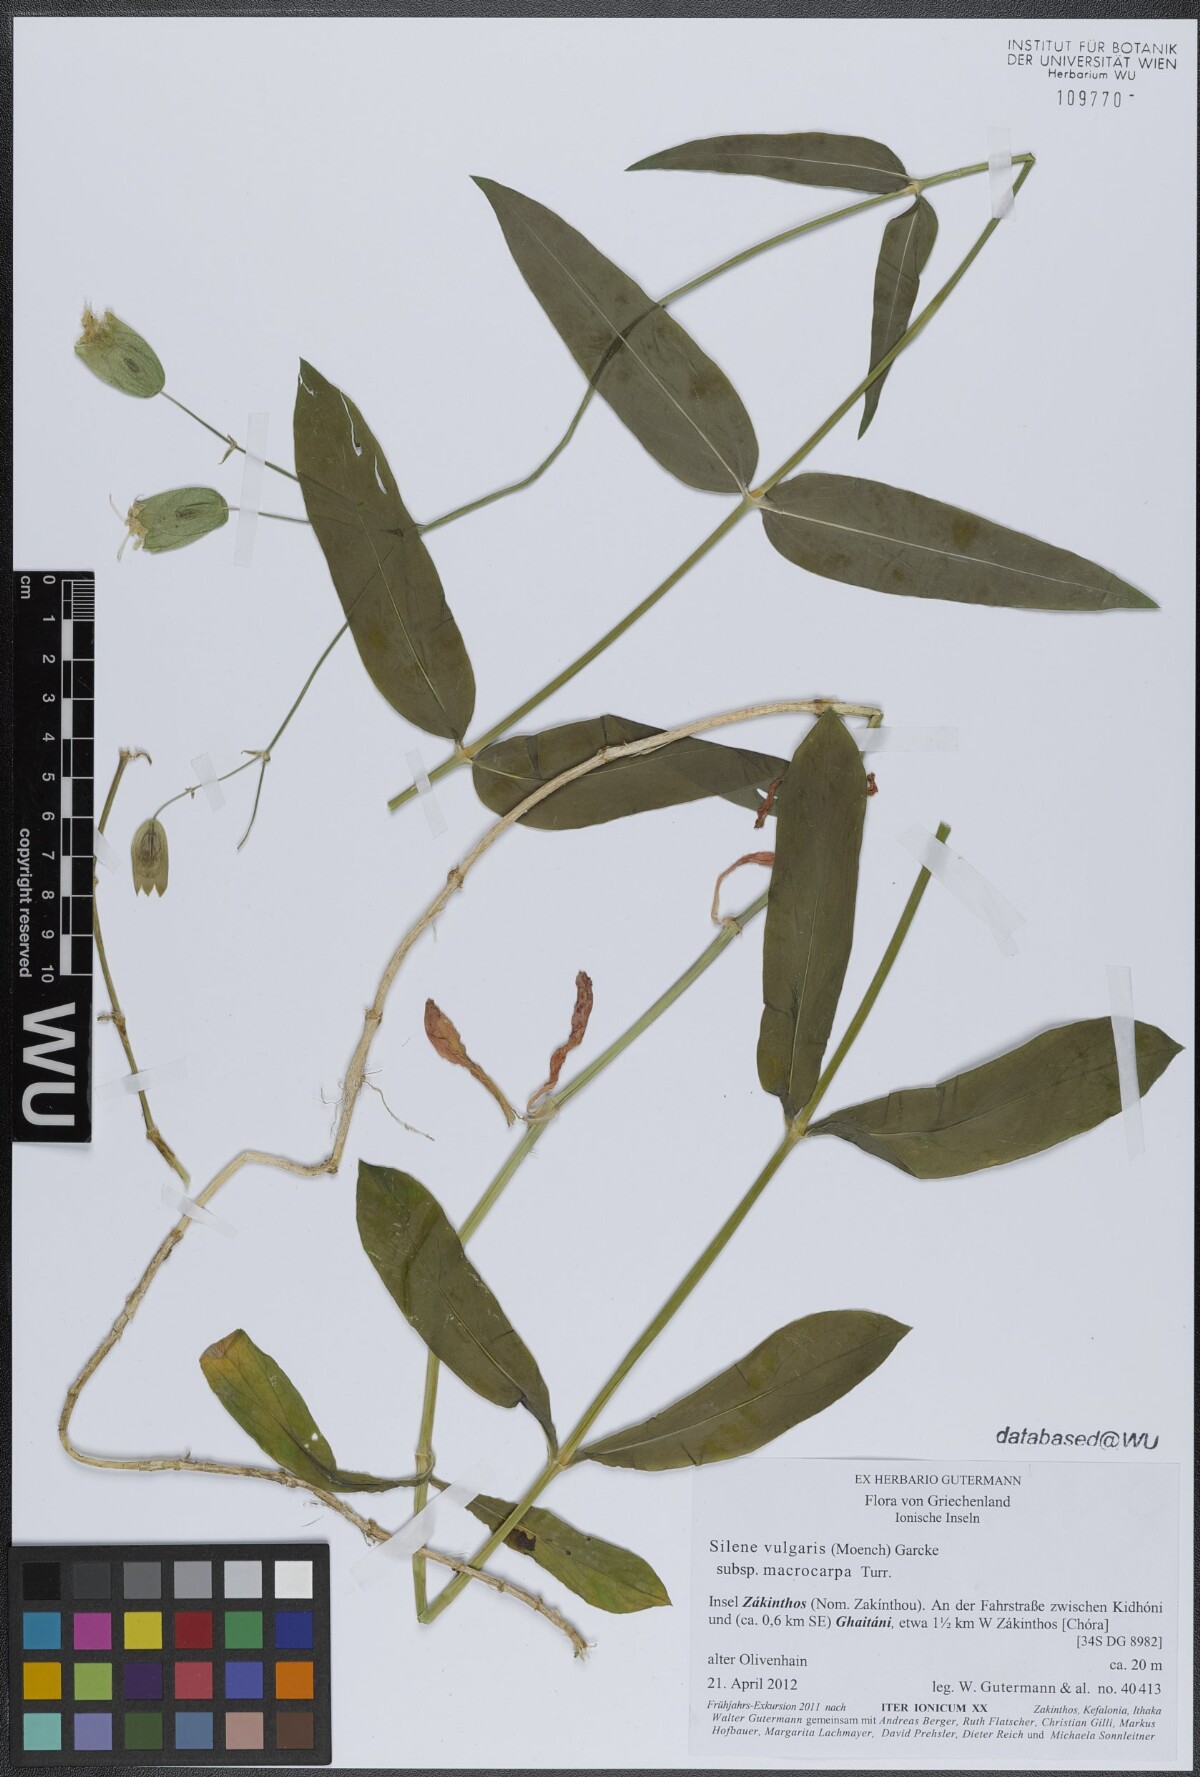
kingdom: Plantae
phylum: Tracheophyta
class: Magnoliopsida
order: Caryophyllales
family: Caryophyllaceae
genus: Silene
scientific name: Silene vulgaris
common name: Bladder campion
